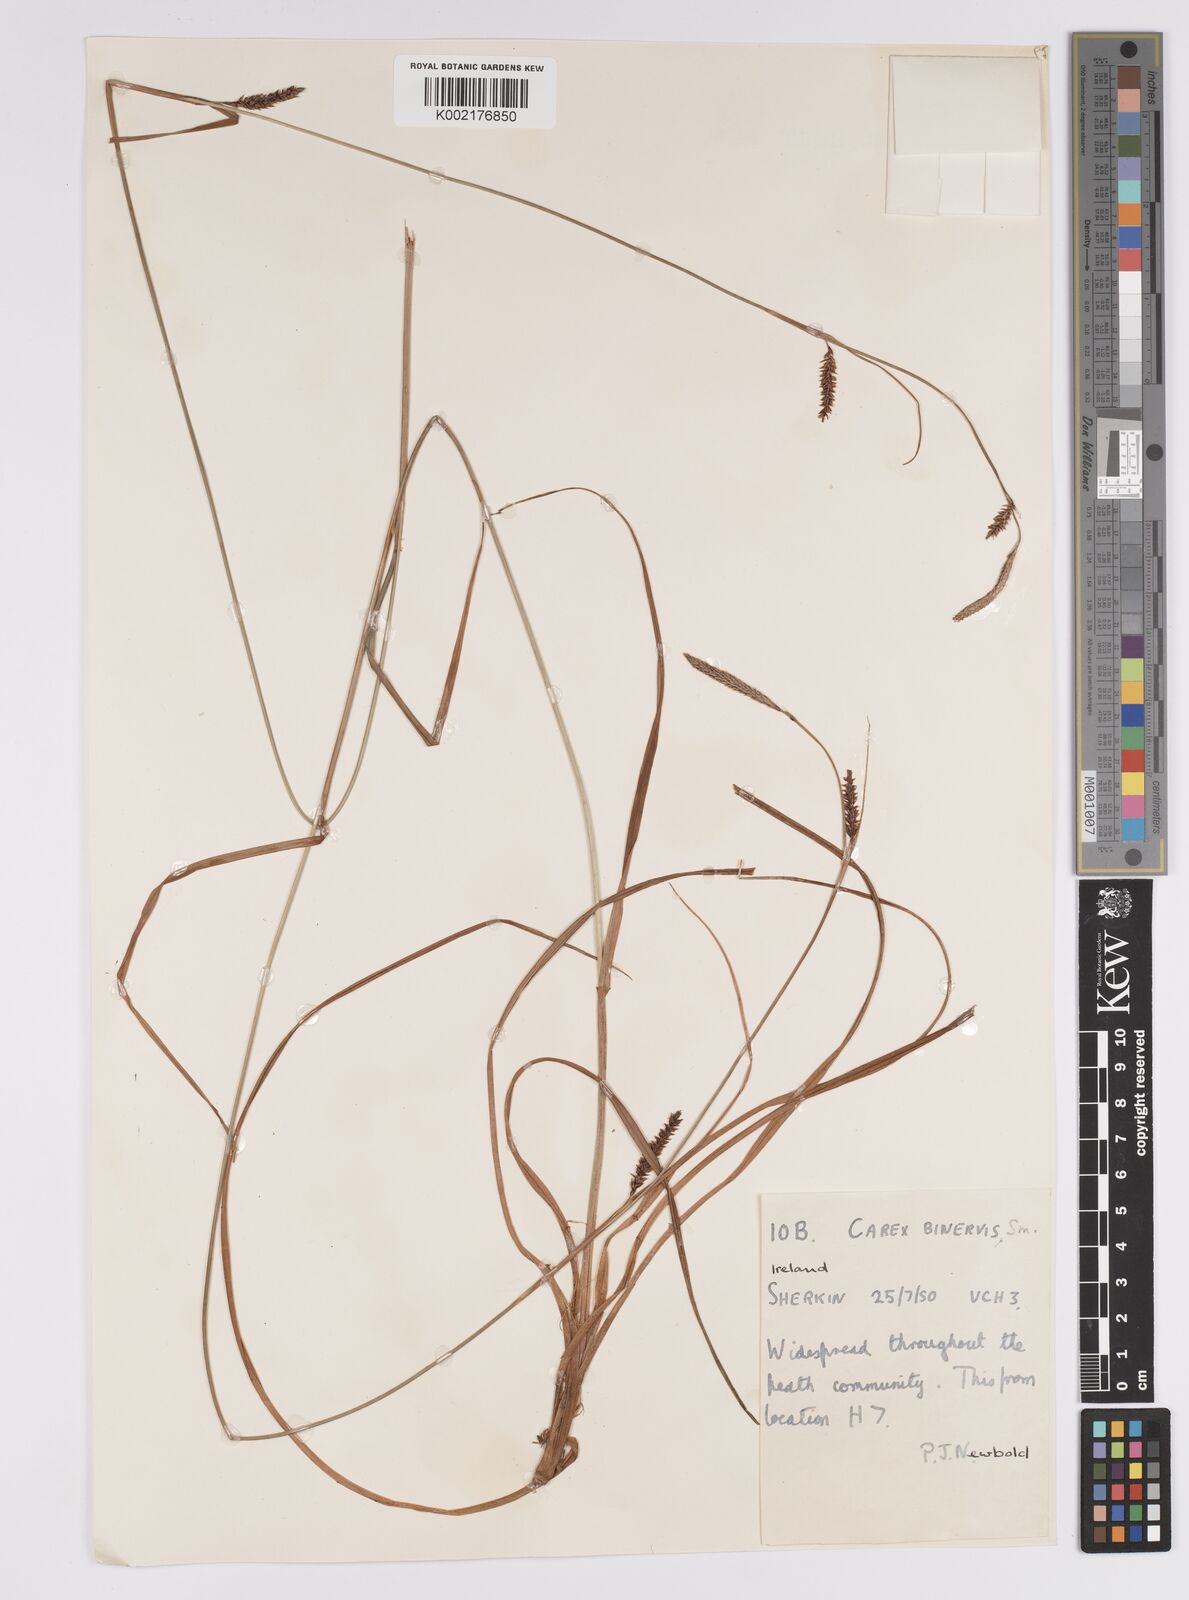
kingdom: Plantae
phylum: Tracheophyta
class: Liliopsida
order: Poales
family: Cyperaceae
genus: Carex
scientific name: Carex binervis
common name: Green-ribbed sedge
